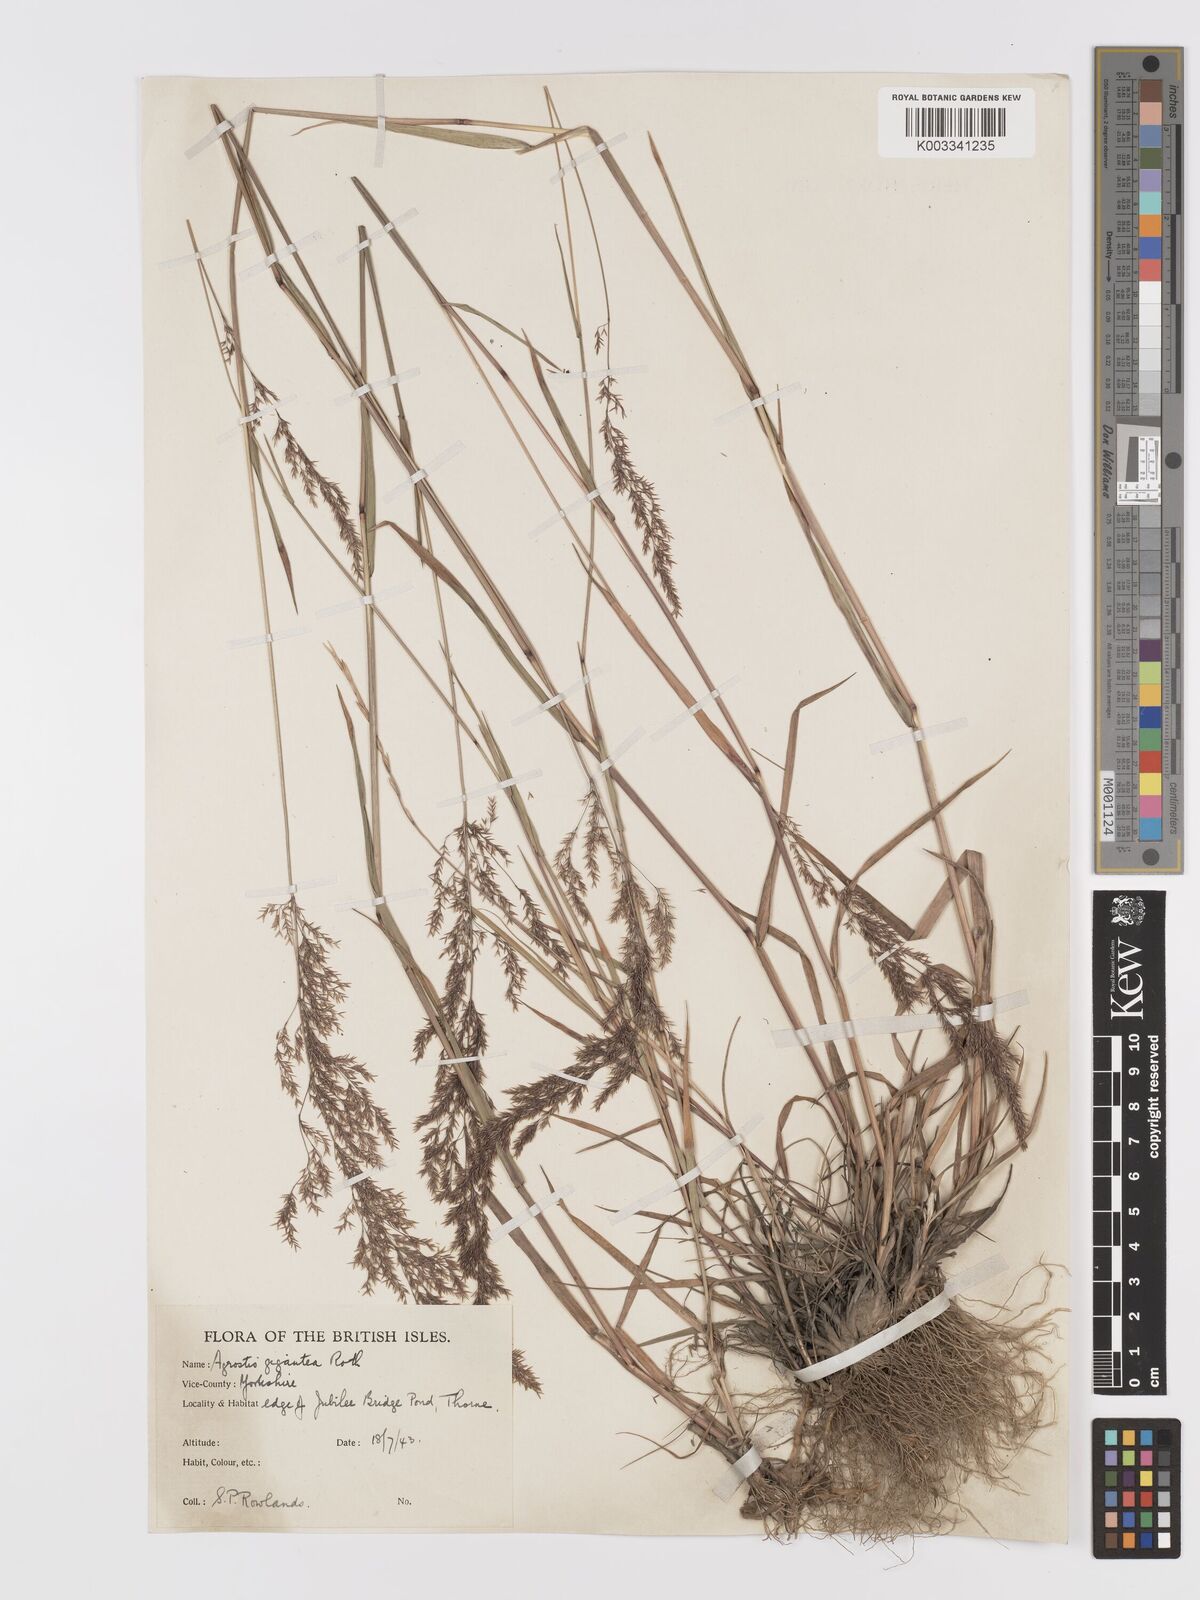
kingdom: Plantae
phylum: Tracheophyta
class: Liliopsida
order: Poales
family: Poaceae
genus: Agrostis
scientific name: Agrostis gigantea
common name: Black bent
